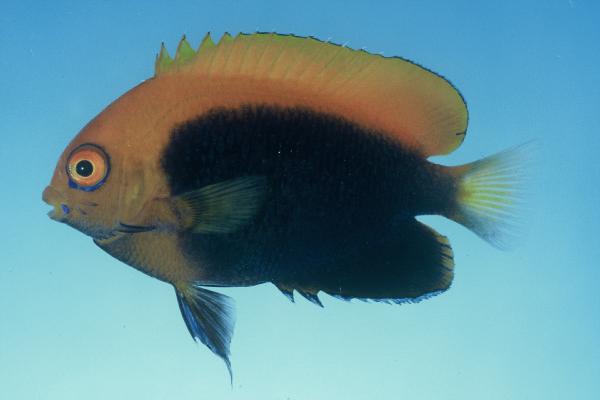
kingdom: Animalia
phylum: Chordata
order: Perciformes
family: Pomacanthidae
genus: Centropyge
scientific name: Centropyge acanthops
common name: African pygmy angelfish
